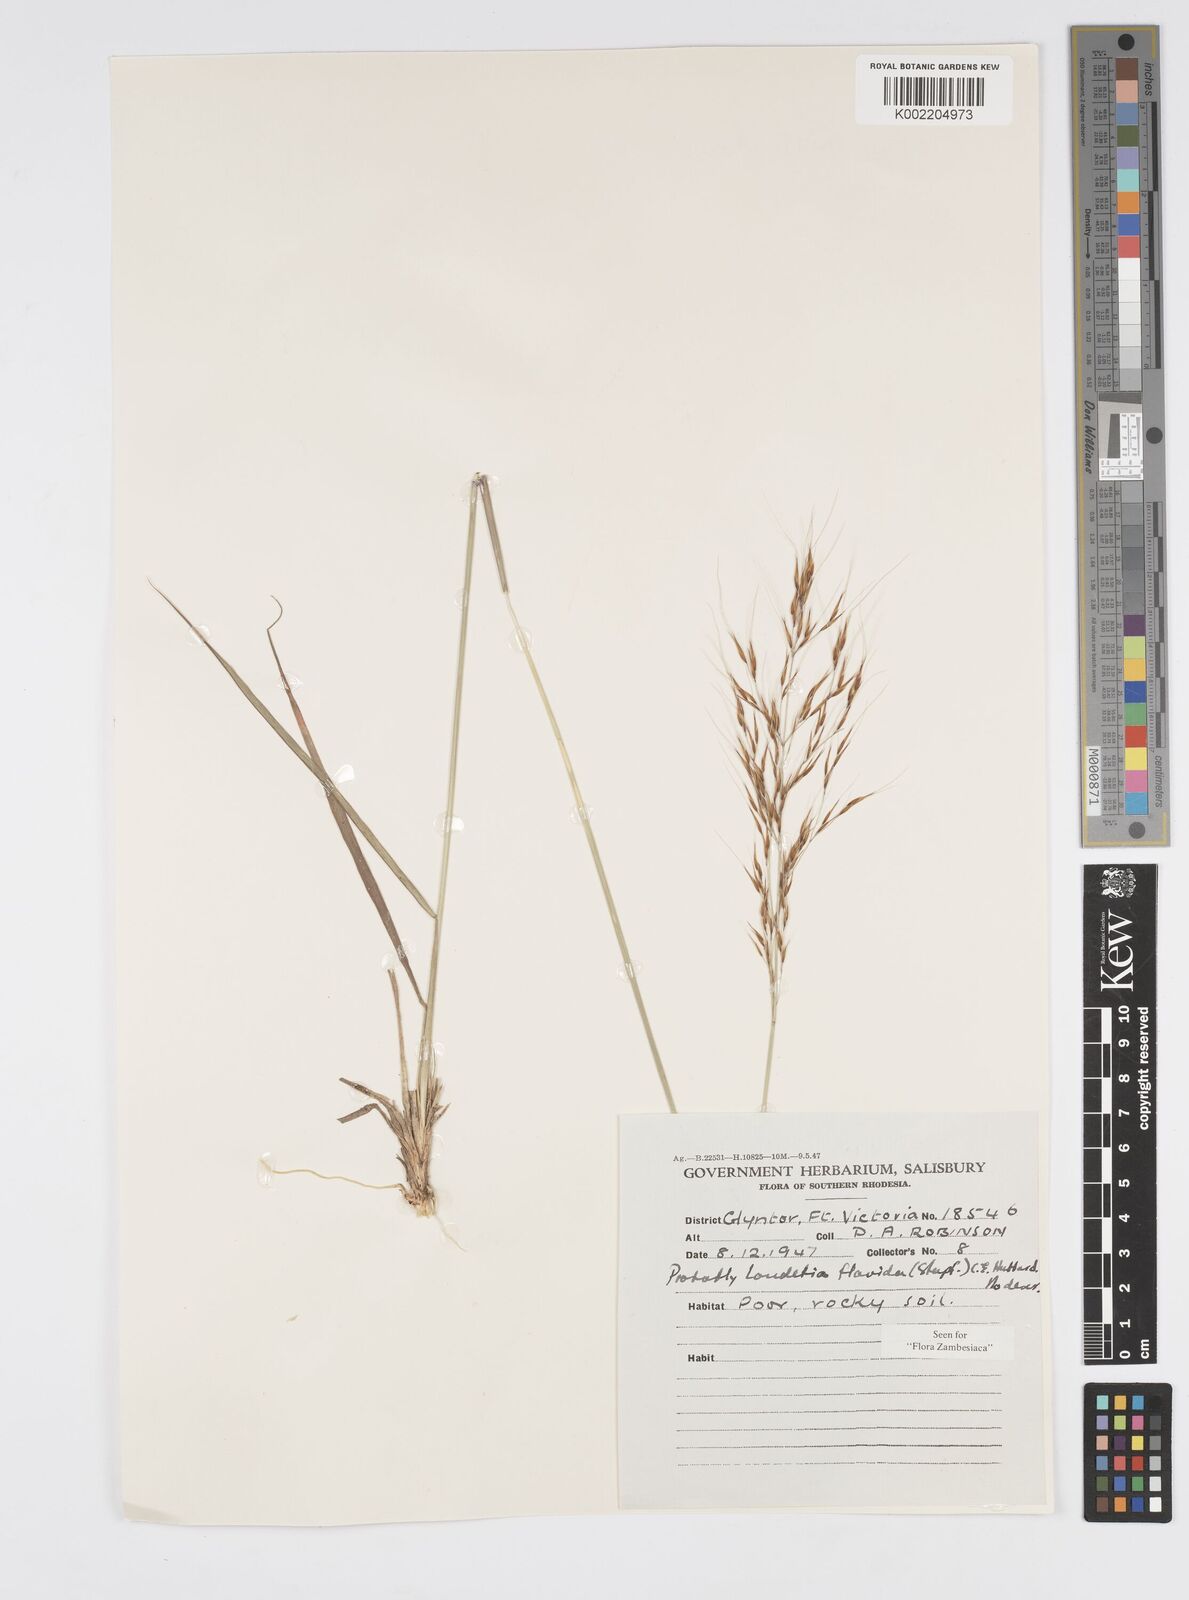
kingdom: Plantae
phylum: Tracheophyta
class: Liliopsida
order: Poales
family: Poaceae
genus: Loudetia
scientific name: Loudetia flavida
